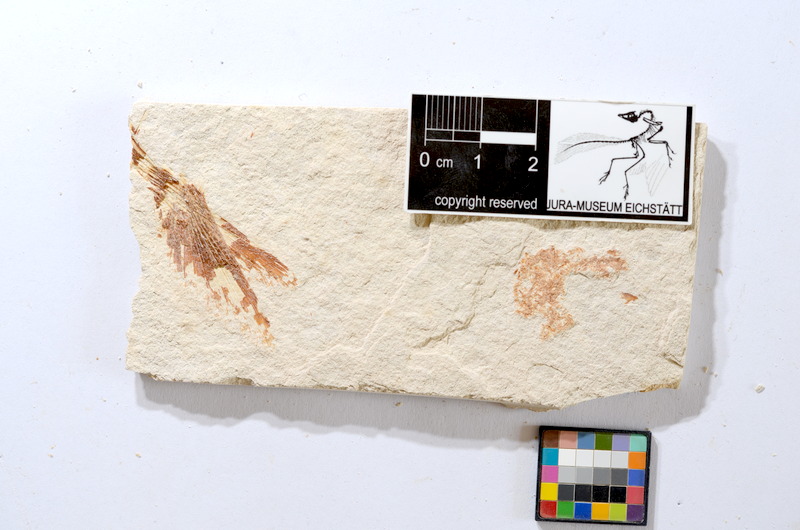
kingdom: Animalia
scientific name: Animalia
